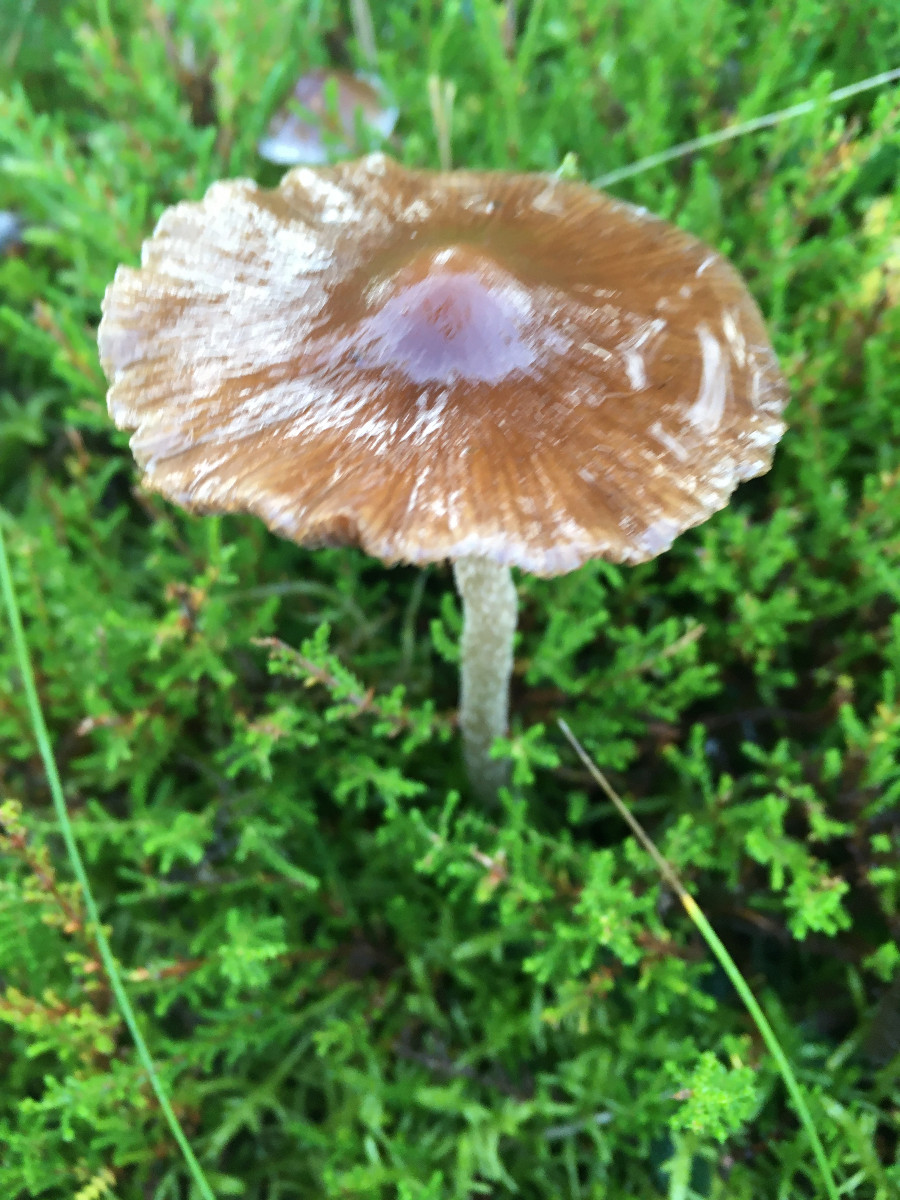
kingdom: Fungi
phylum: Basidiomycota
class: Agaricomycetes
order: Agaricales
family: Psathyrellaceae
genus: Psathyrella
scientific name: Psathyrella
